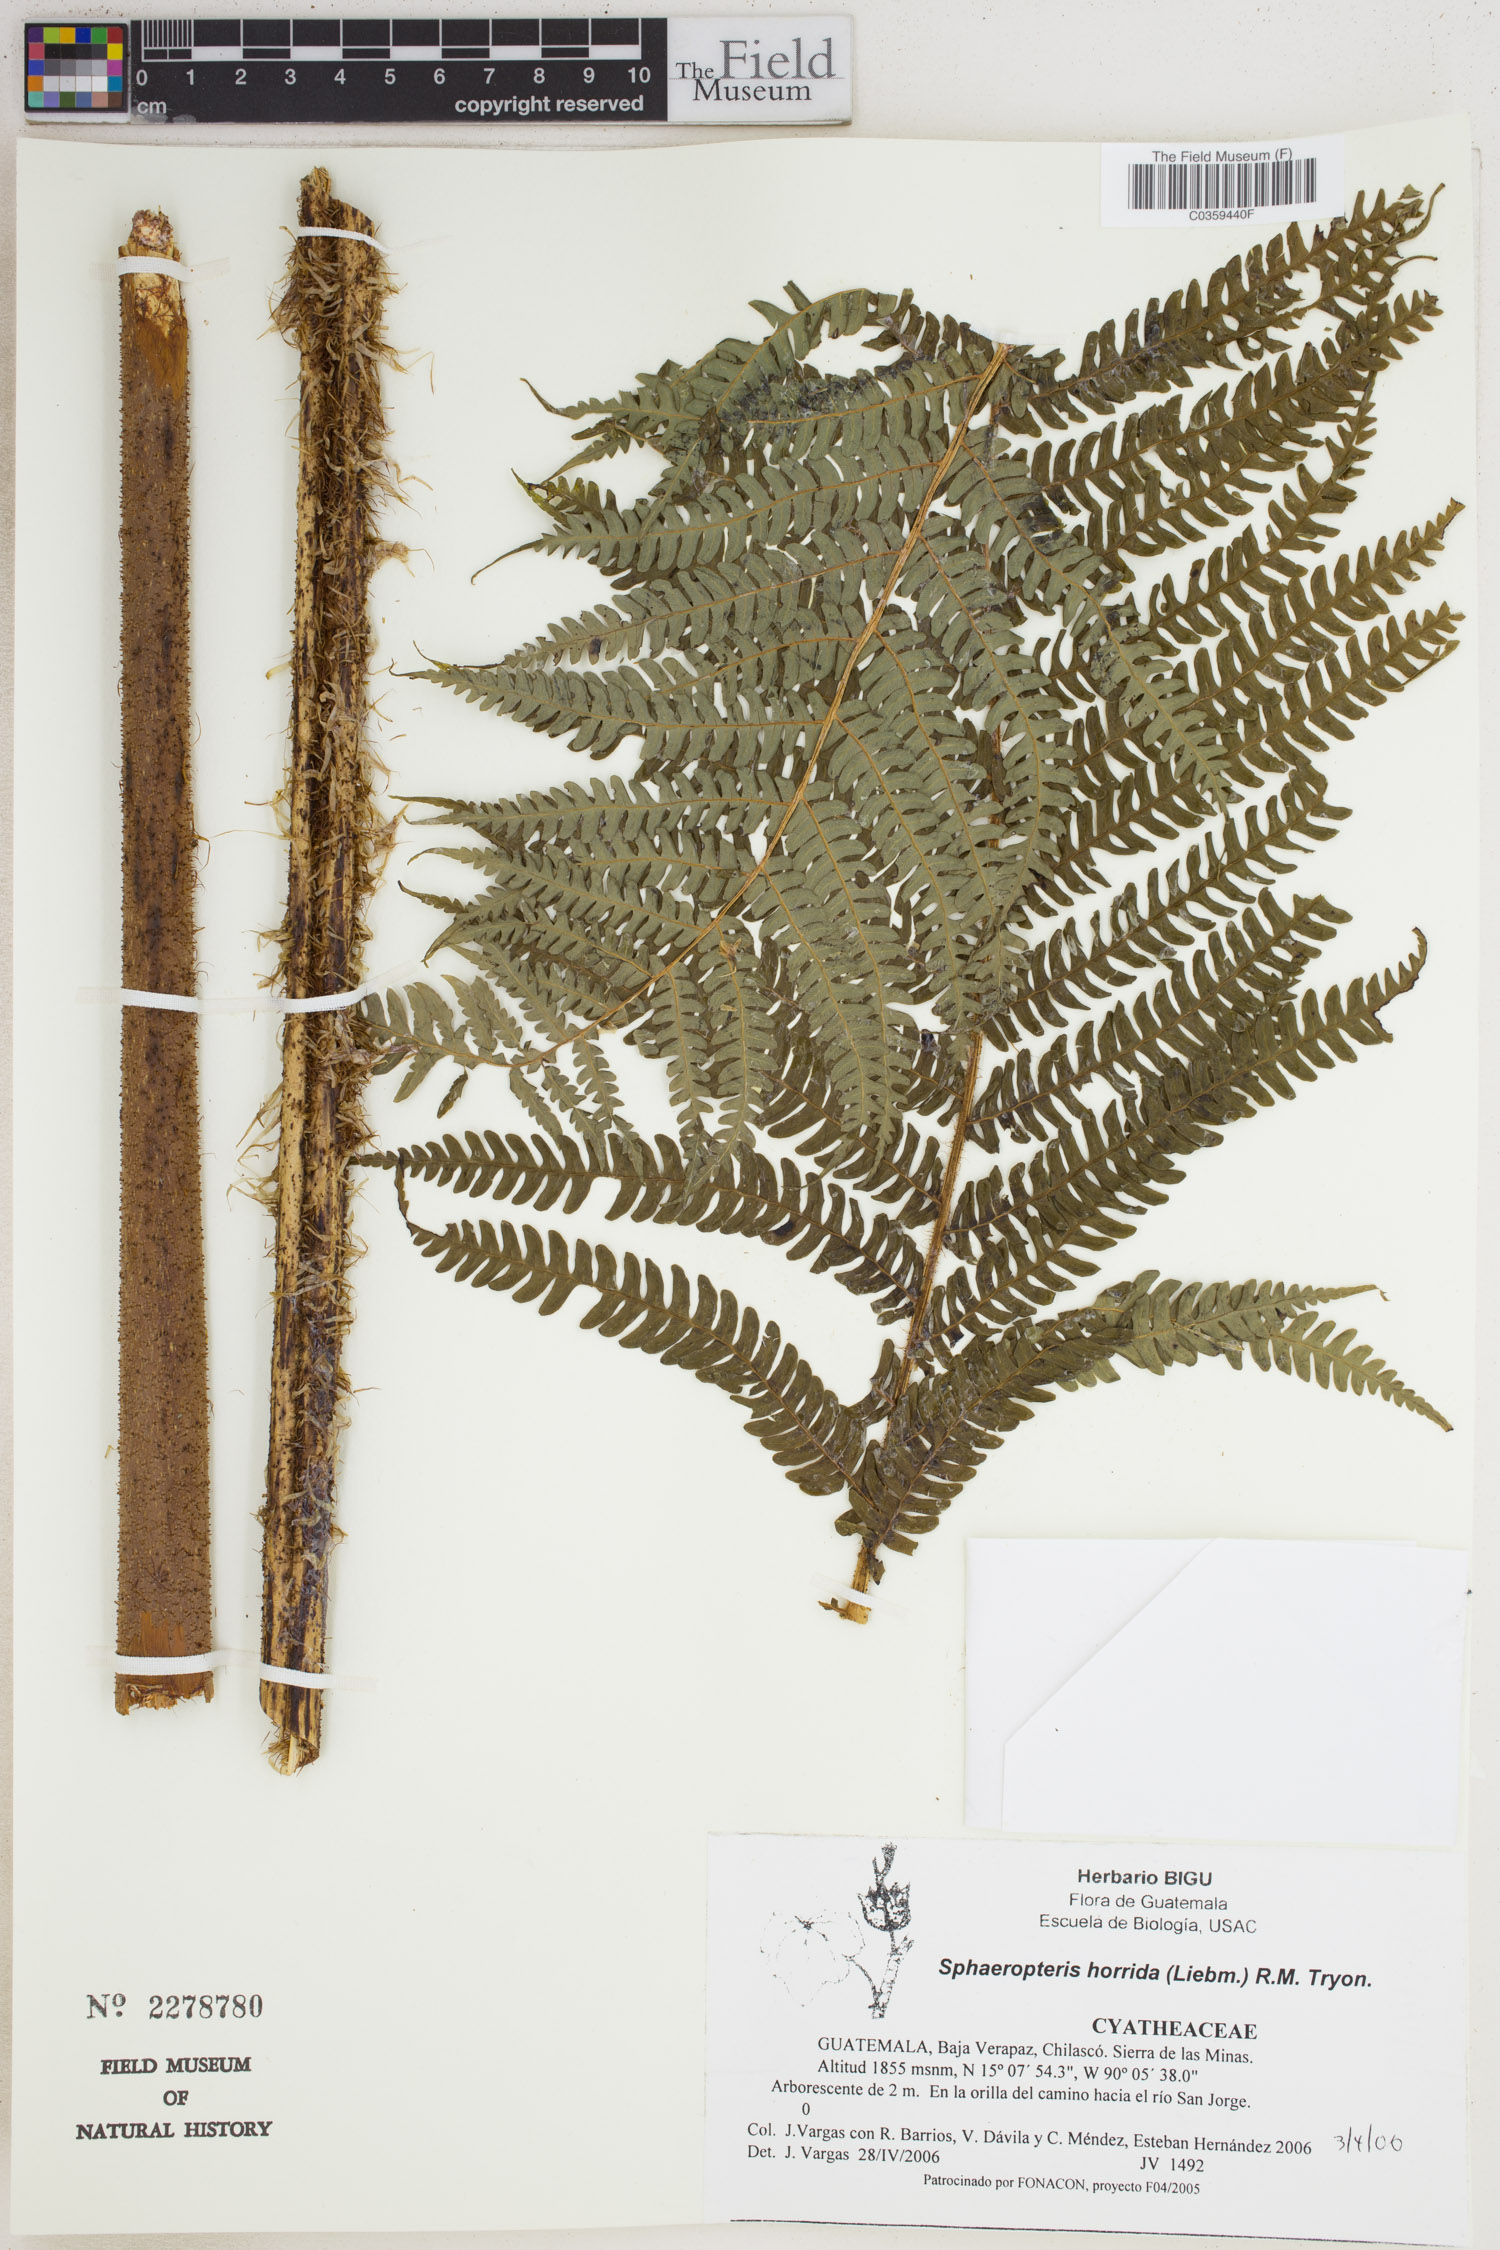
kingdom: Plantae
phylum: Tracheophyta
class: Polypodiopsida
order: Cyatheales
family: Cyatheaceae
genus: Sphaeropteris
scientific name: Sphaeropteris horrida
